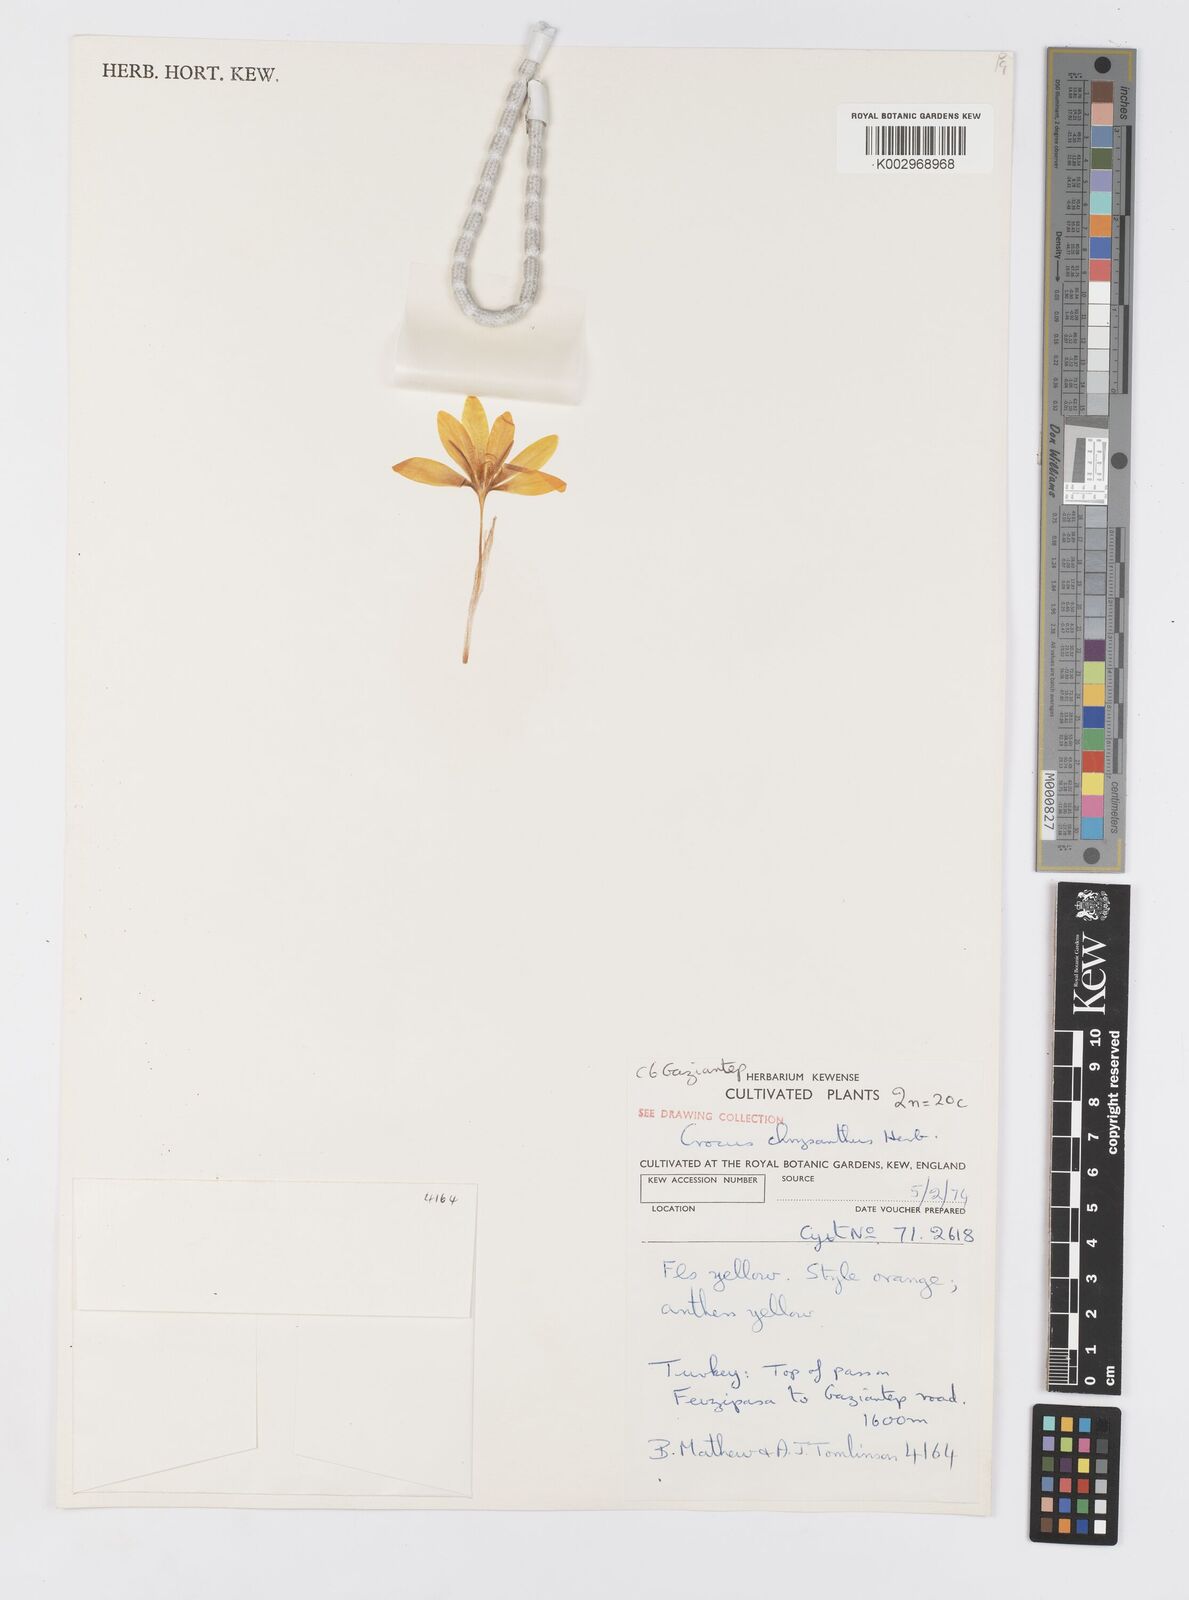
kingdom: Plantae
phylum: Tracheophyta
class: Liliopsida
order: Asparagales
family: Iridaceae
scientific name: Iridaceae
